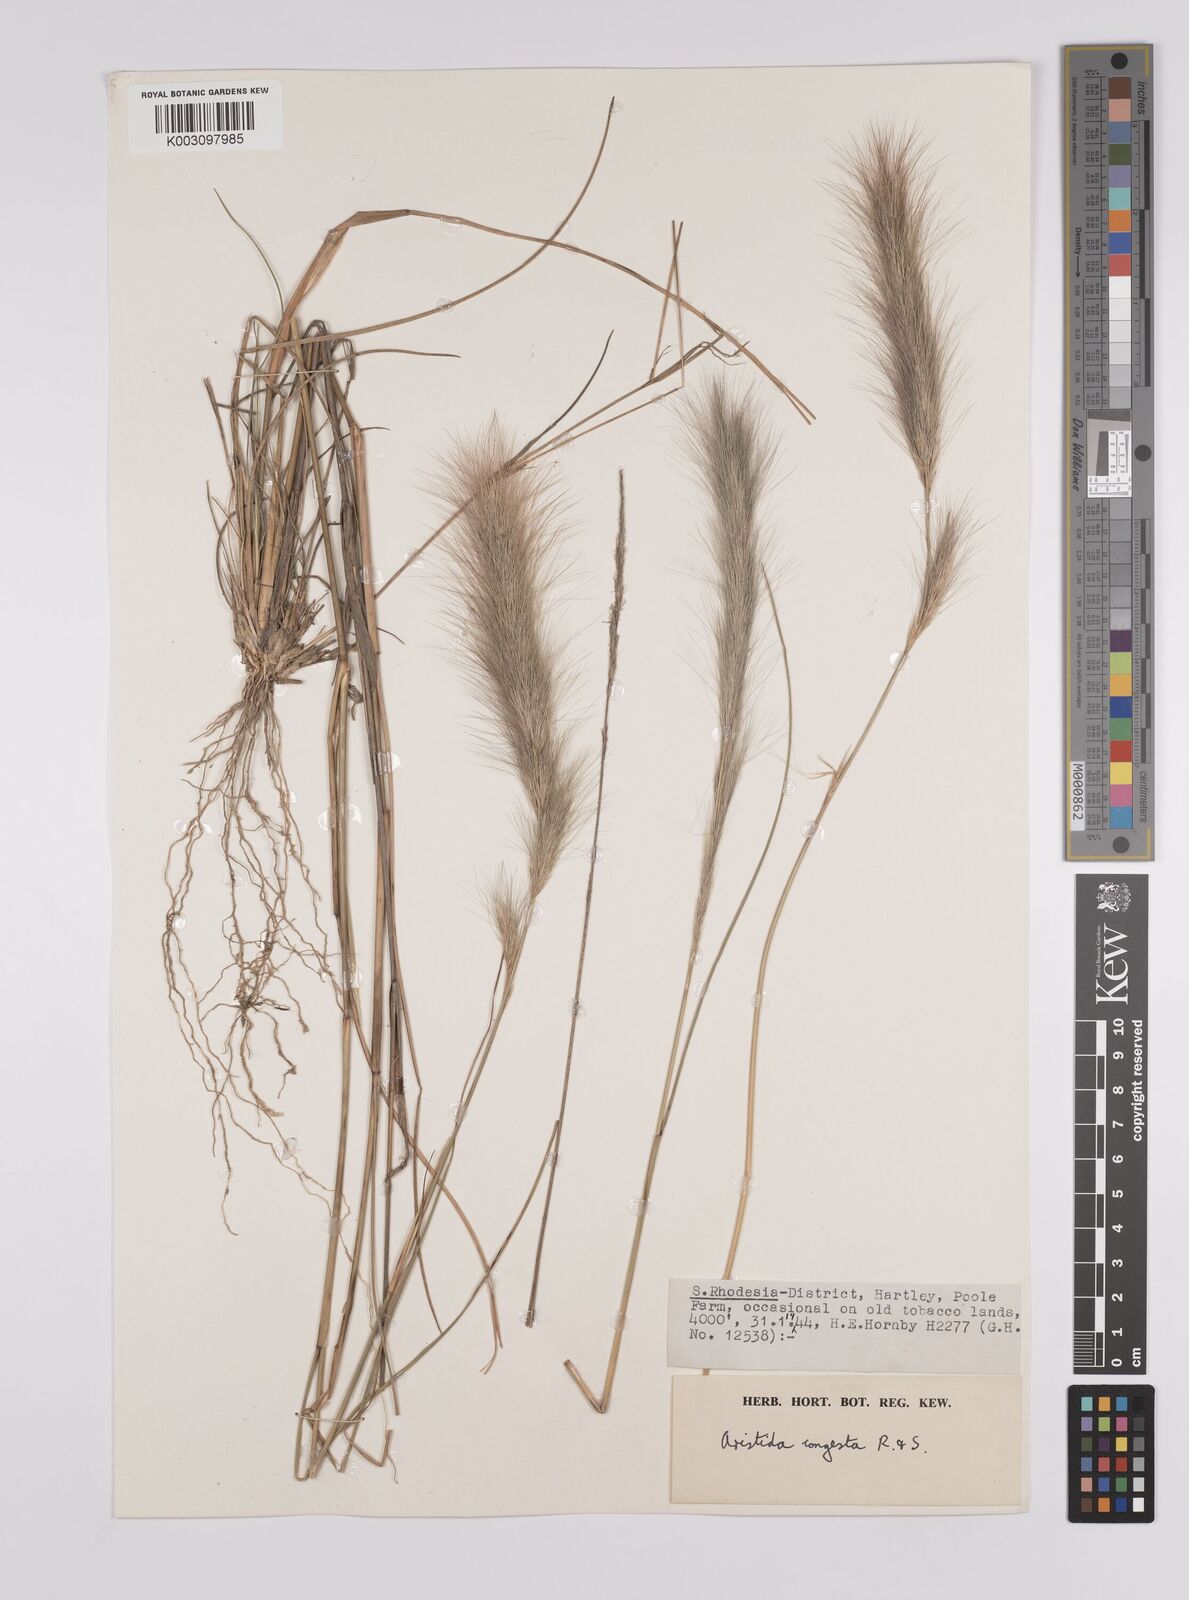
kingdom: Plantae
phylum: Tracheophyta
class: Liliopsida
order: Poales
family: Poaceae
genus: Aristida
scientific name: Aristida congesta
